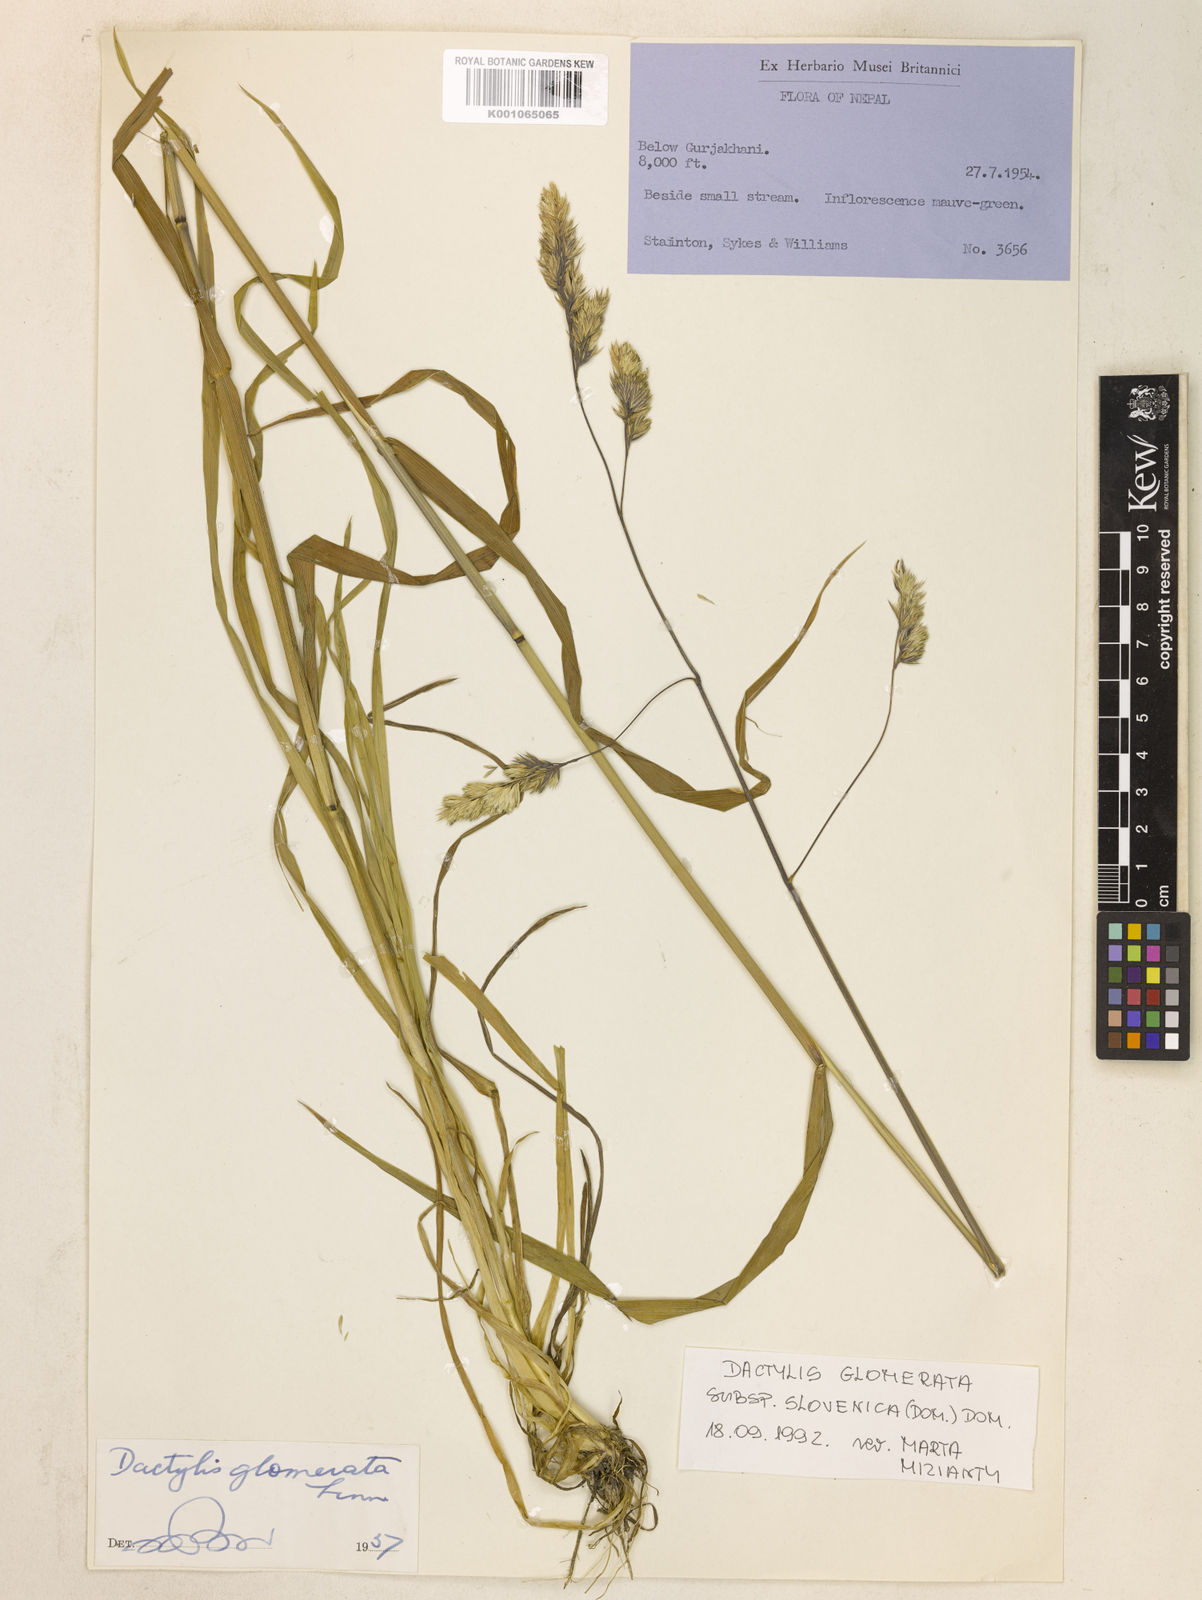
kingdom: Plantae
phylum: Tracheophyta
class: Liliopsida
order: Poales
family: Poaceae
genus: Dactylis
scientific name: Dactylis glomerata
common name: Orchardgrass
